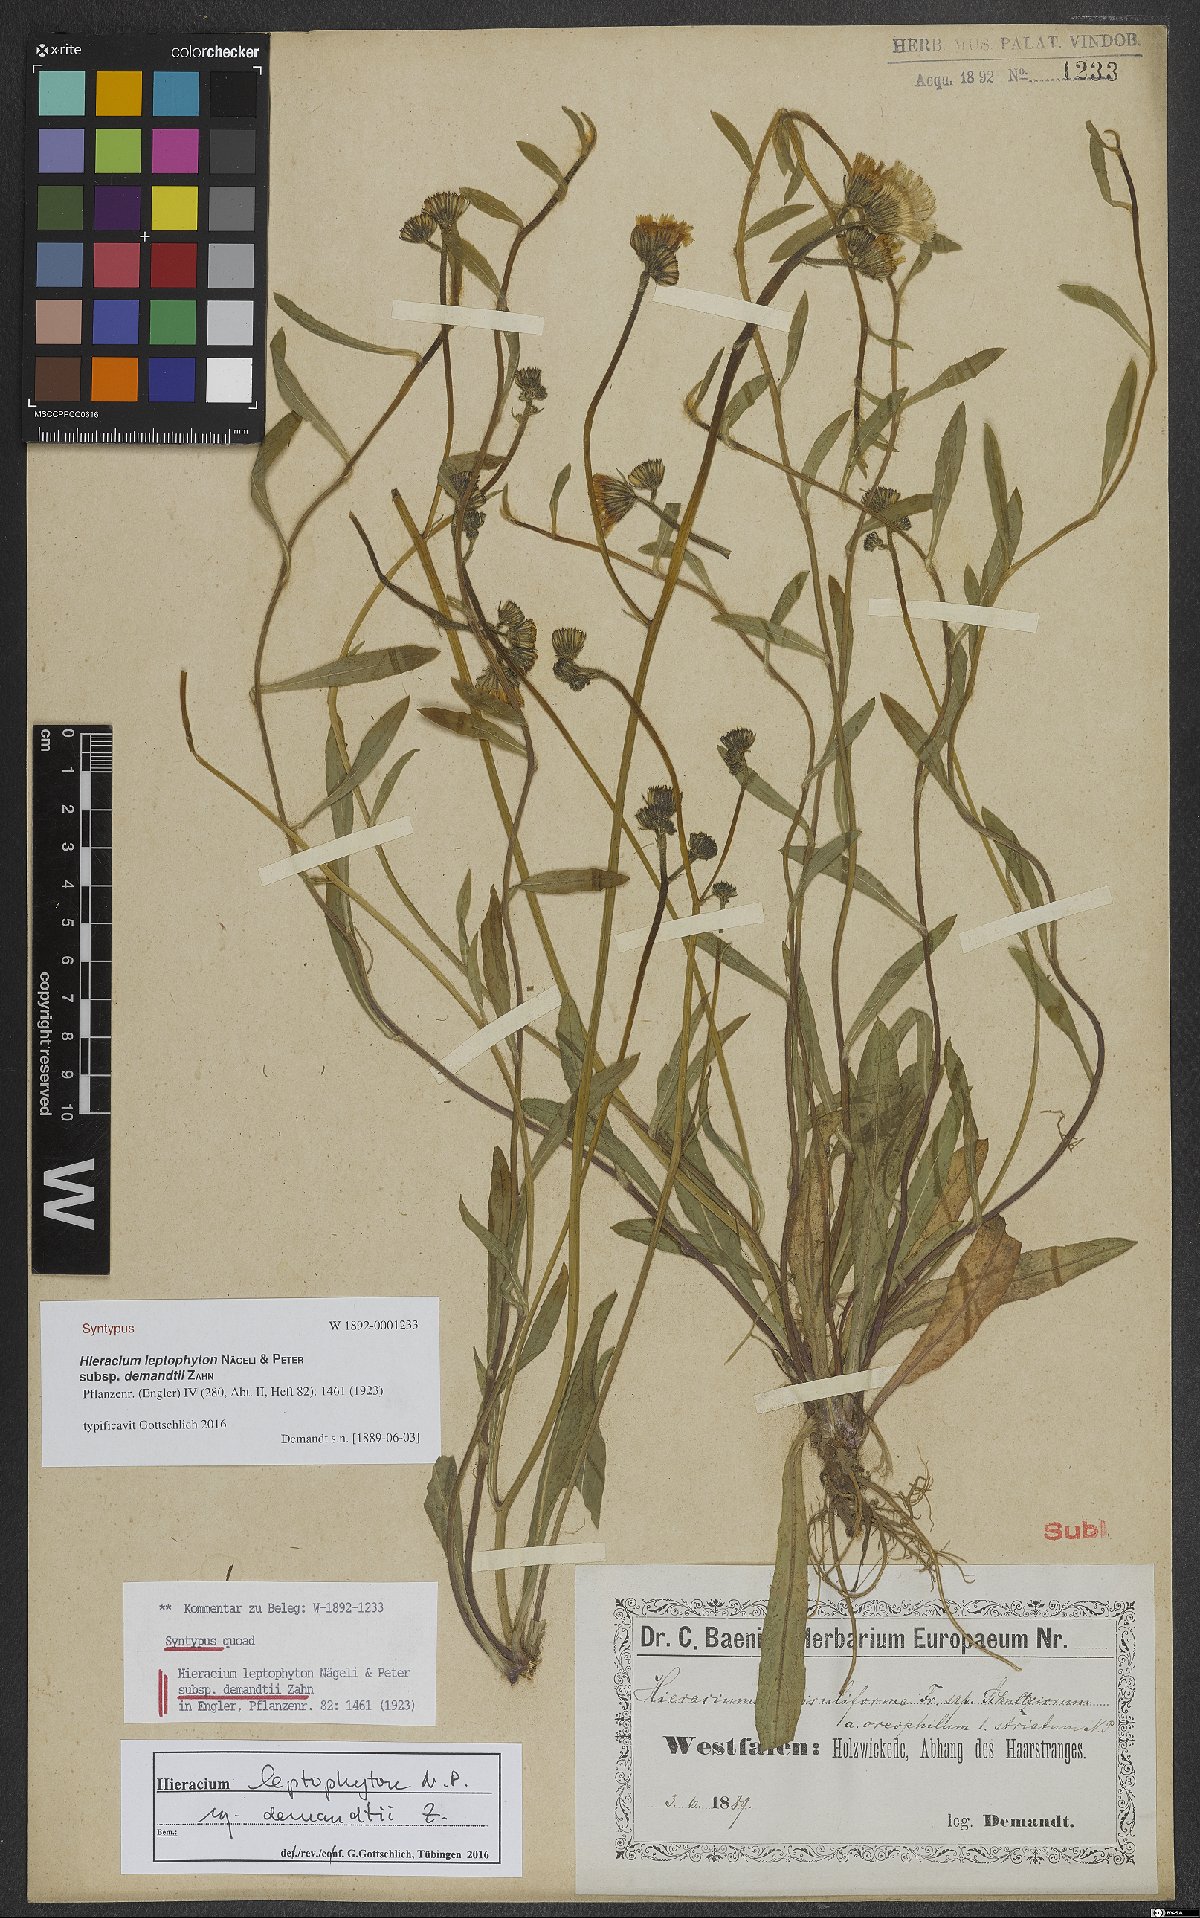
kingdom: Plantae
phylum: Tracheophyta
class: Magnoliopsida
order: Asterales
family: Asteraceae
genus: Pilosella
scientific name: Pilosella leptophyton
